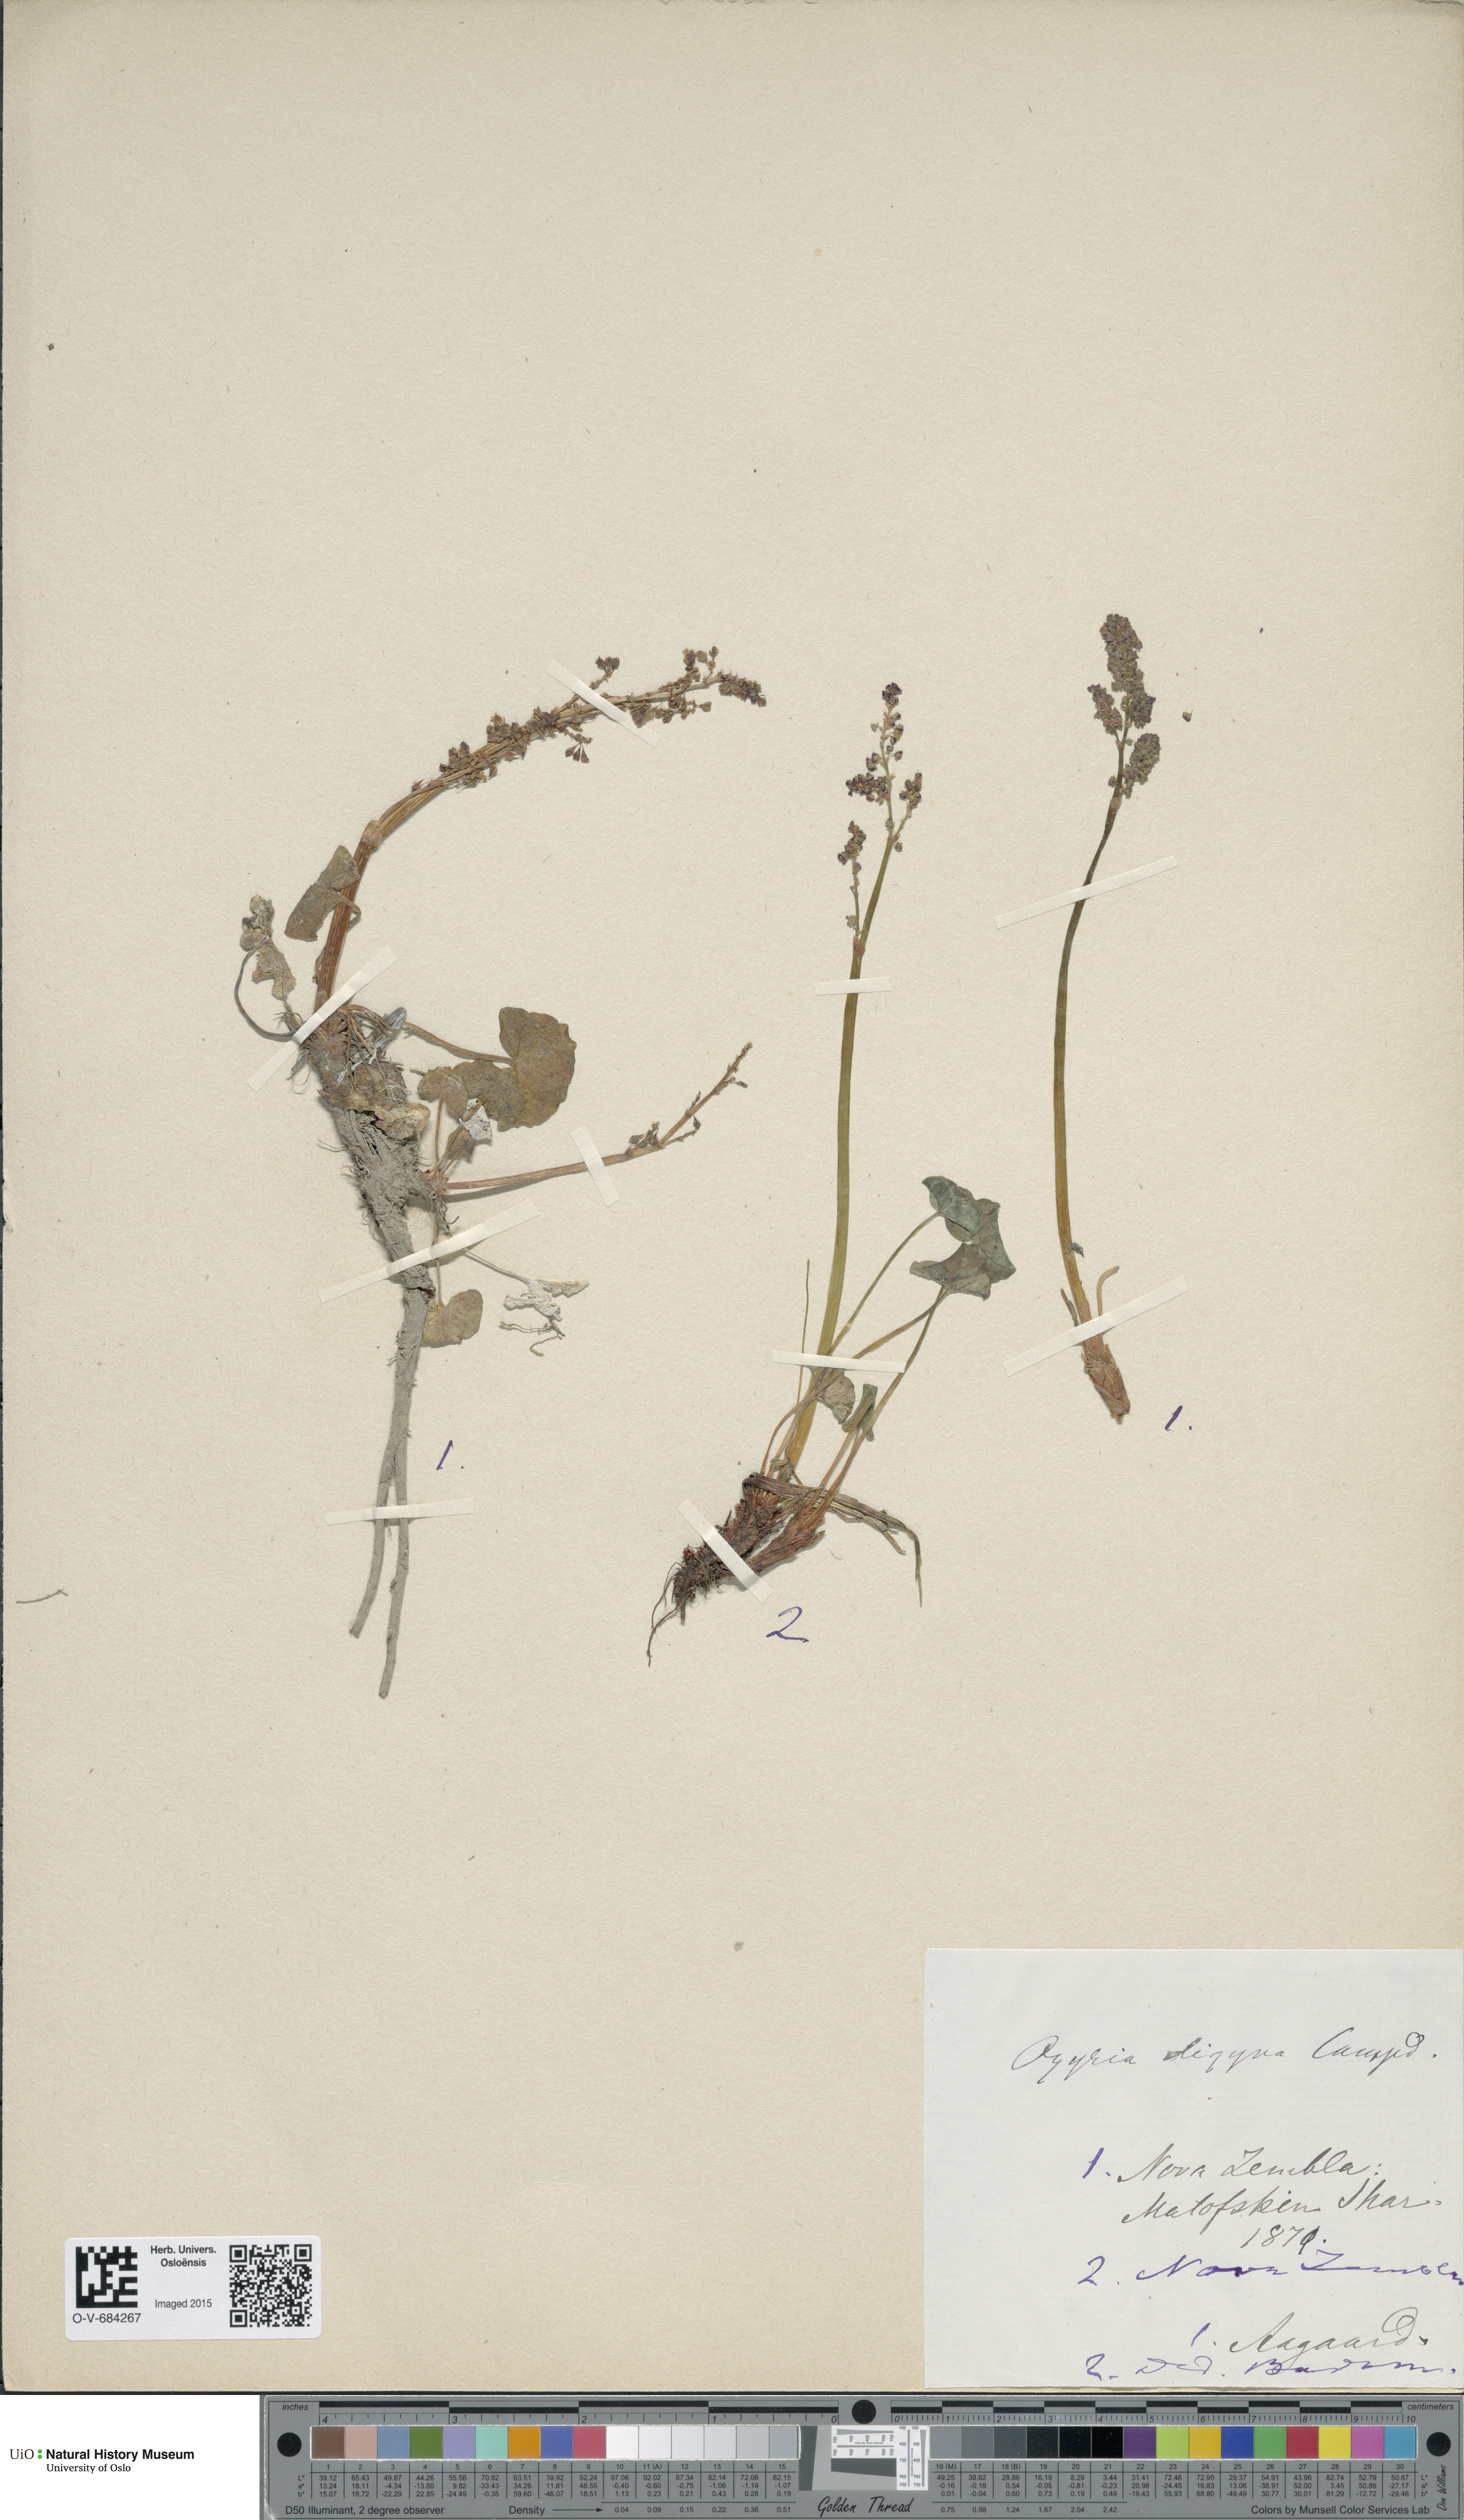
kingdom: Plantae
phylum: Tracheophyta
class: Magnoliopsida
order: Caryophyllales
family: Polygonaceae
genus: Oxyria
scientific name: Oxyria digyna
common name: Alpine mountain-sorrel
